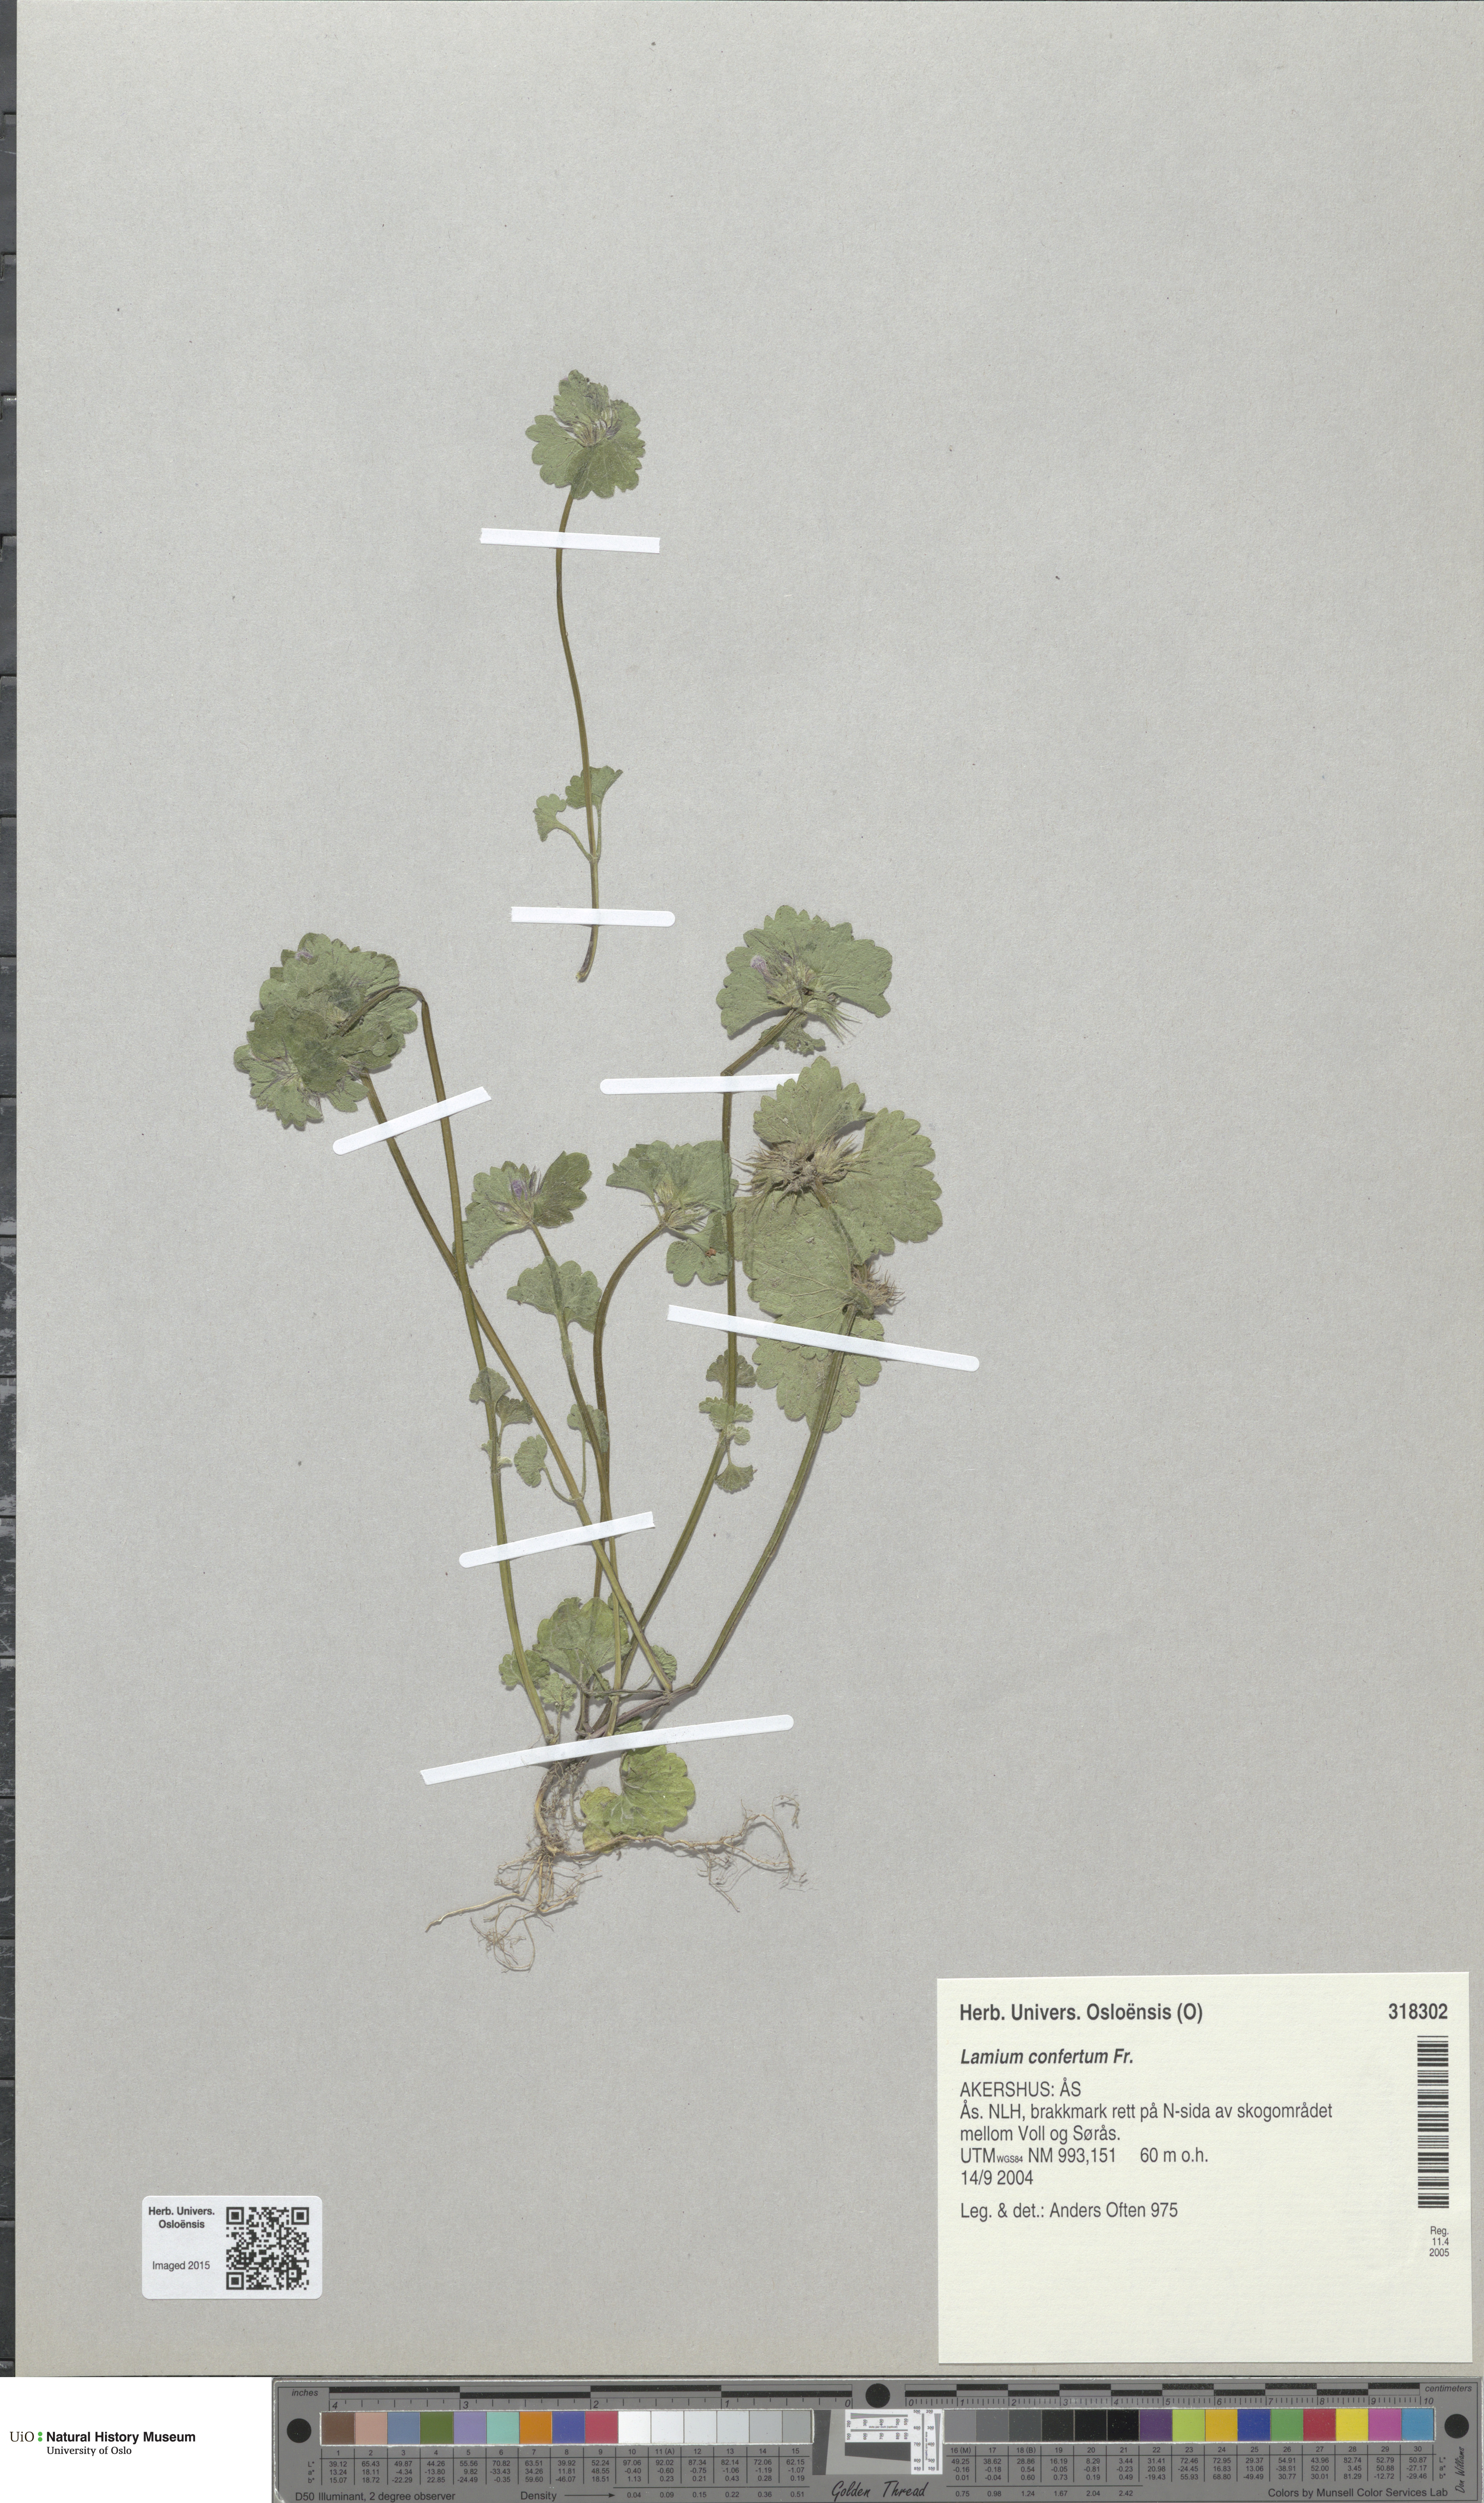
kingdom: Plantae
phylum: Tracheophyta
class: Magnoliopsida
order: Lamiales
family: Lamiaceae
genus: Lamium
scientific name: Lamium confertum
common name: Northern dead-nettle
